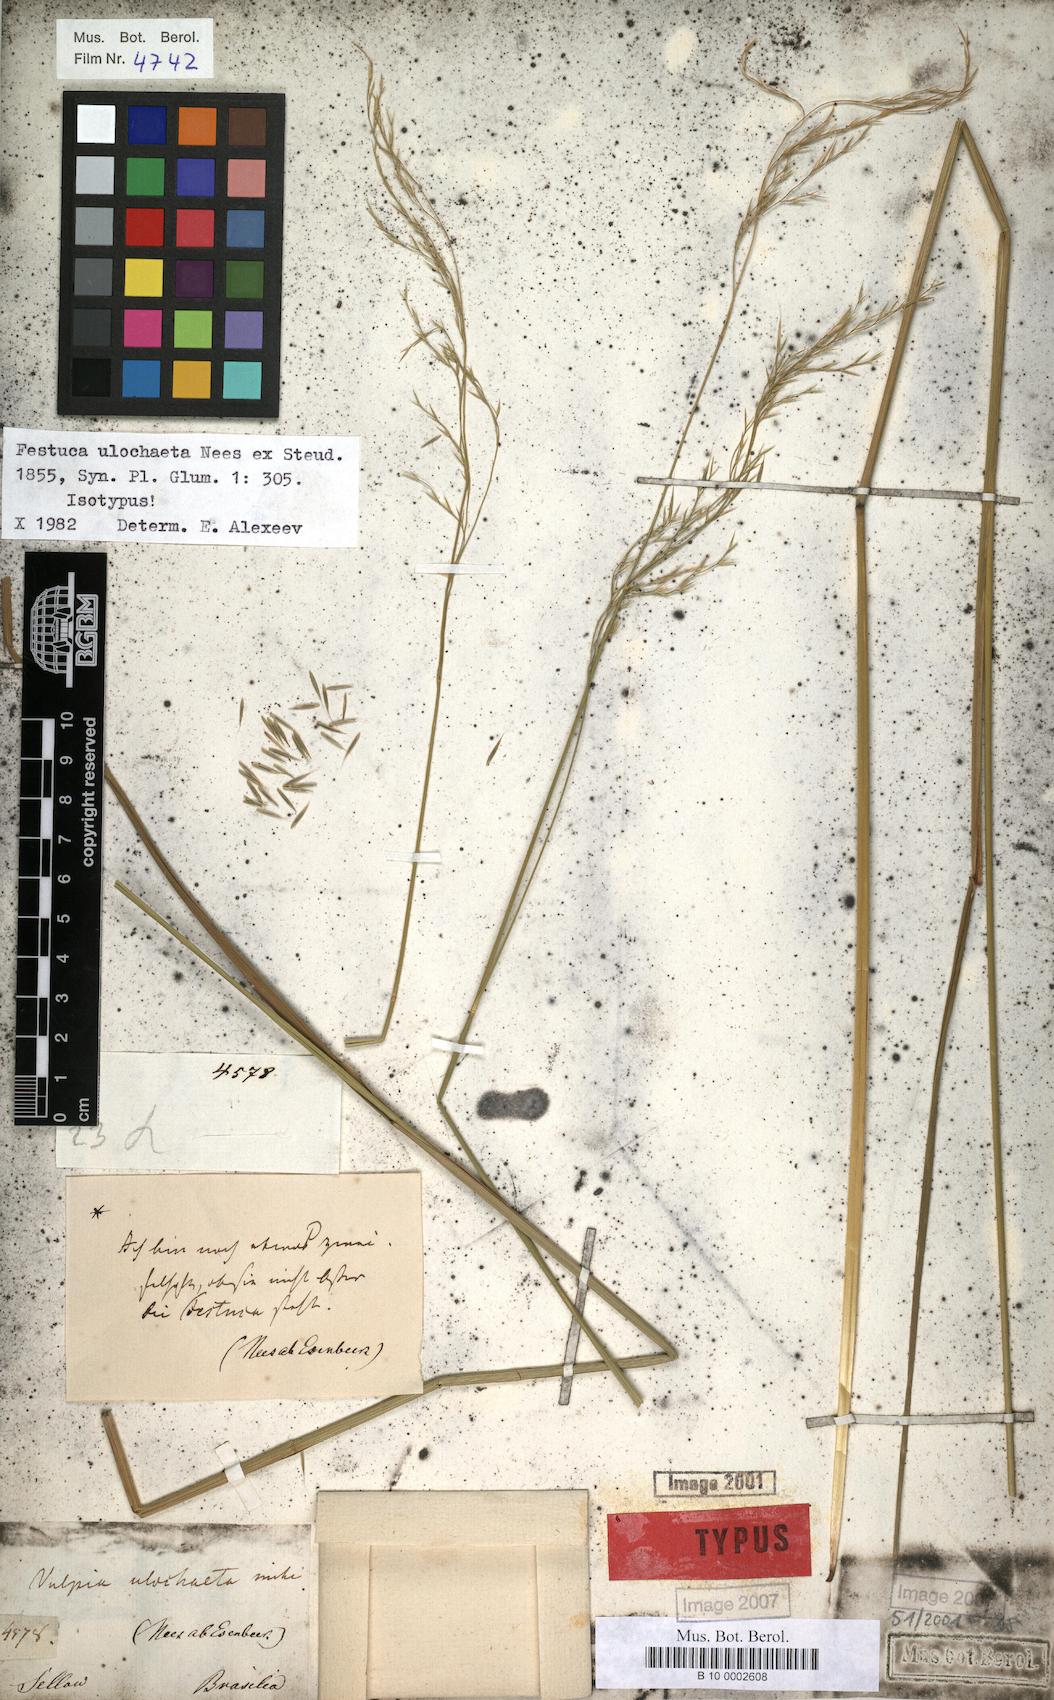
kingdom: Plantae
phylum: Tracheophyta
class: Liliopsida
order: Poales
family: Poaceae
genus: Festuca
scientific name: Festuca ulochaeta
